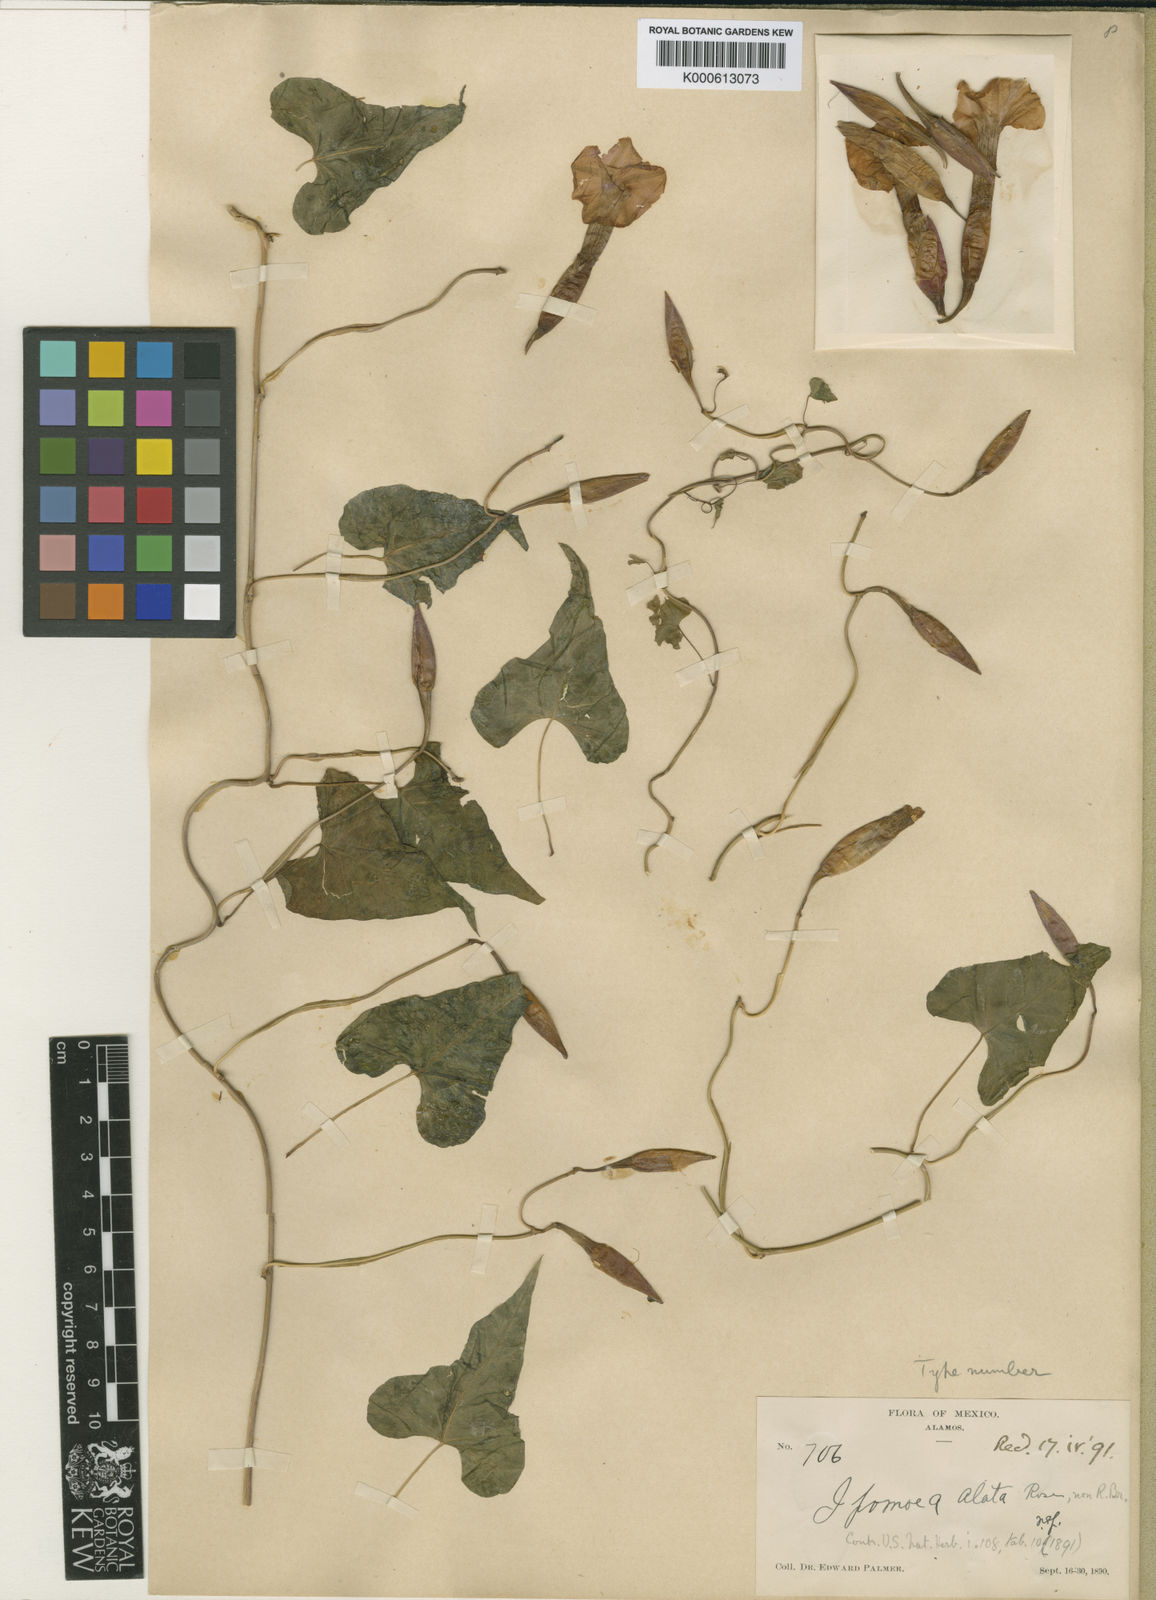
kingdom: Plantae
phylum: Tracheophyta
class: Magnoliopsida
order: Solanales
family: Convolvulaceae
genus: Operculina
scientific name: Operculina pteripes
